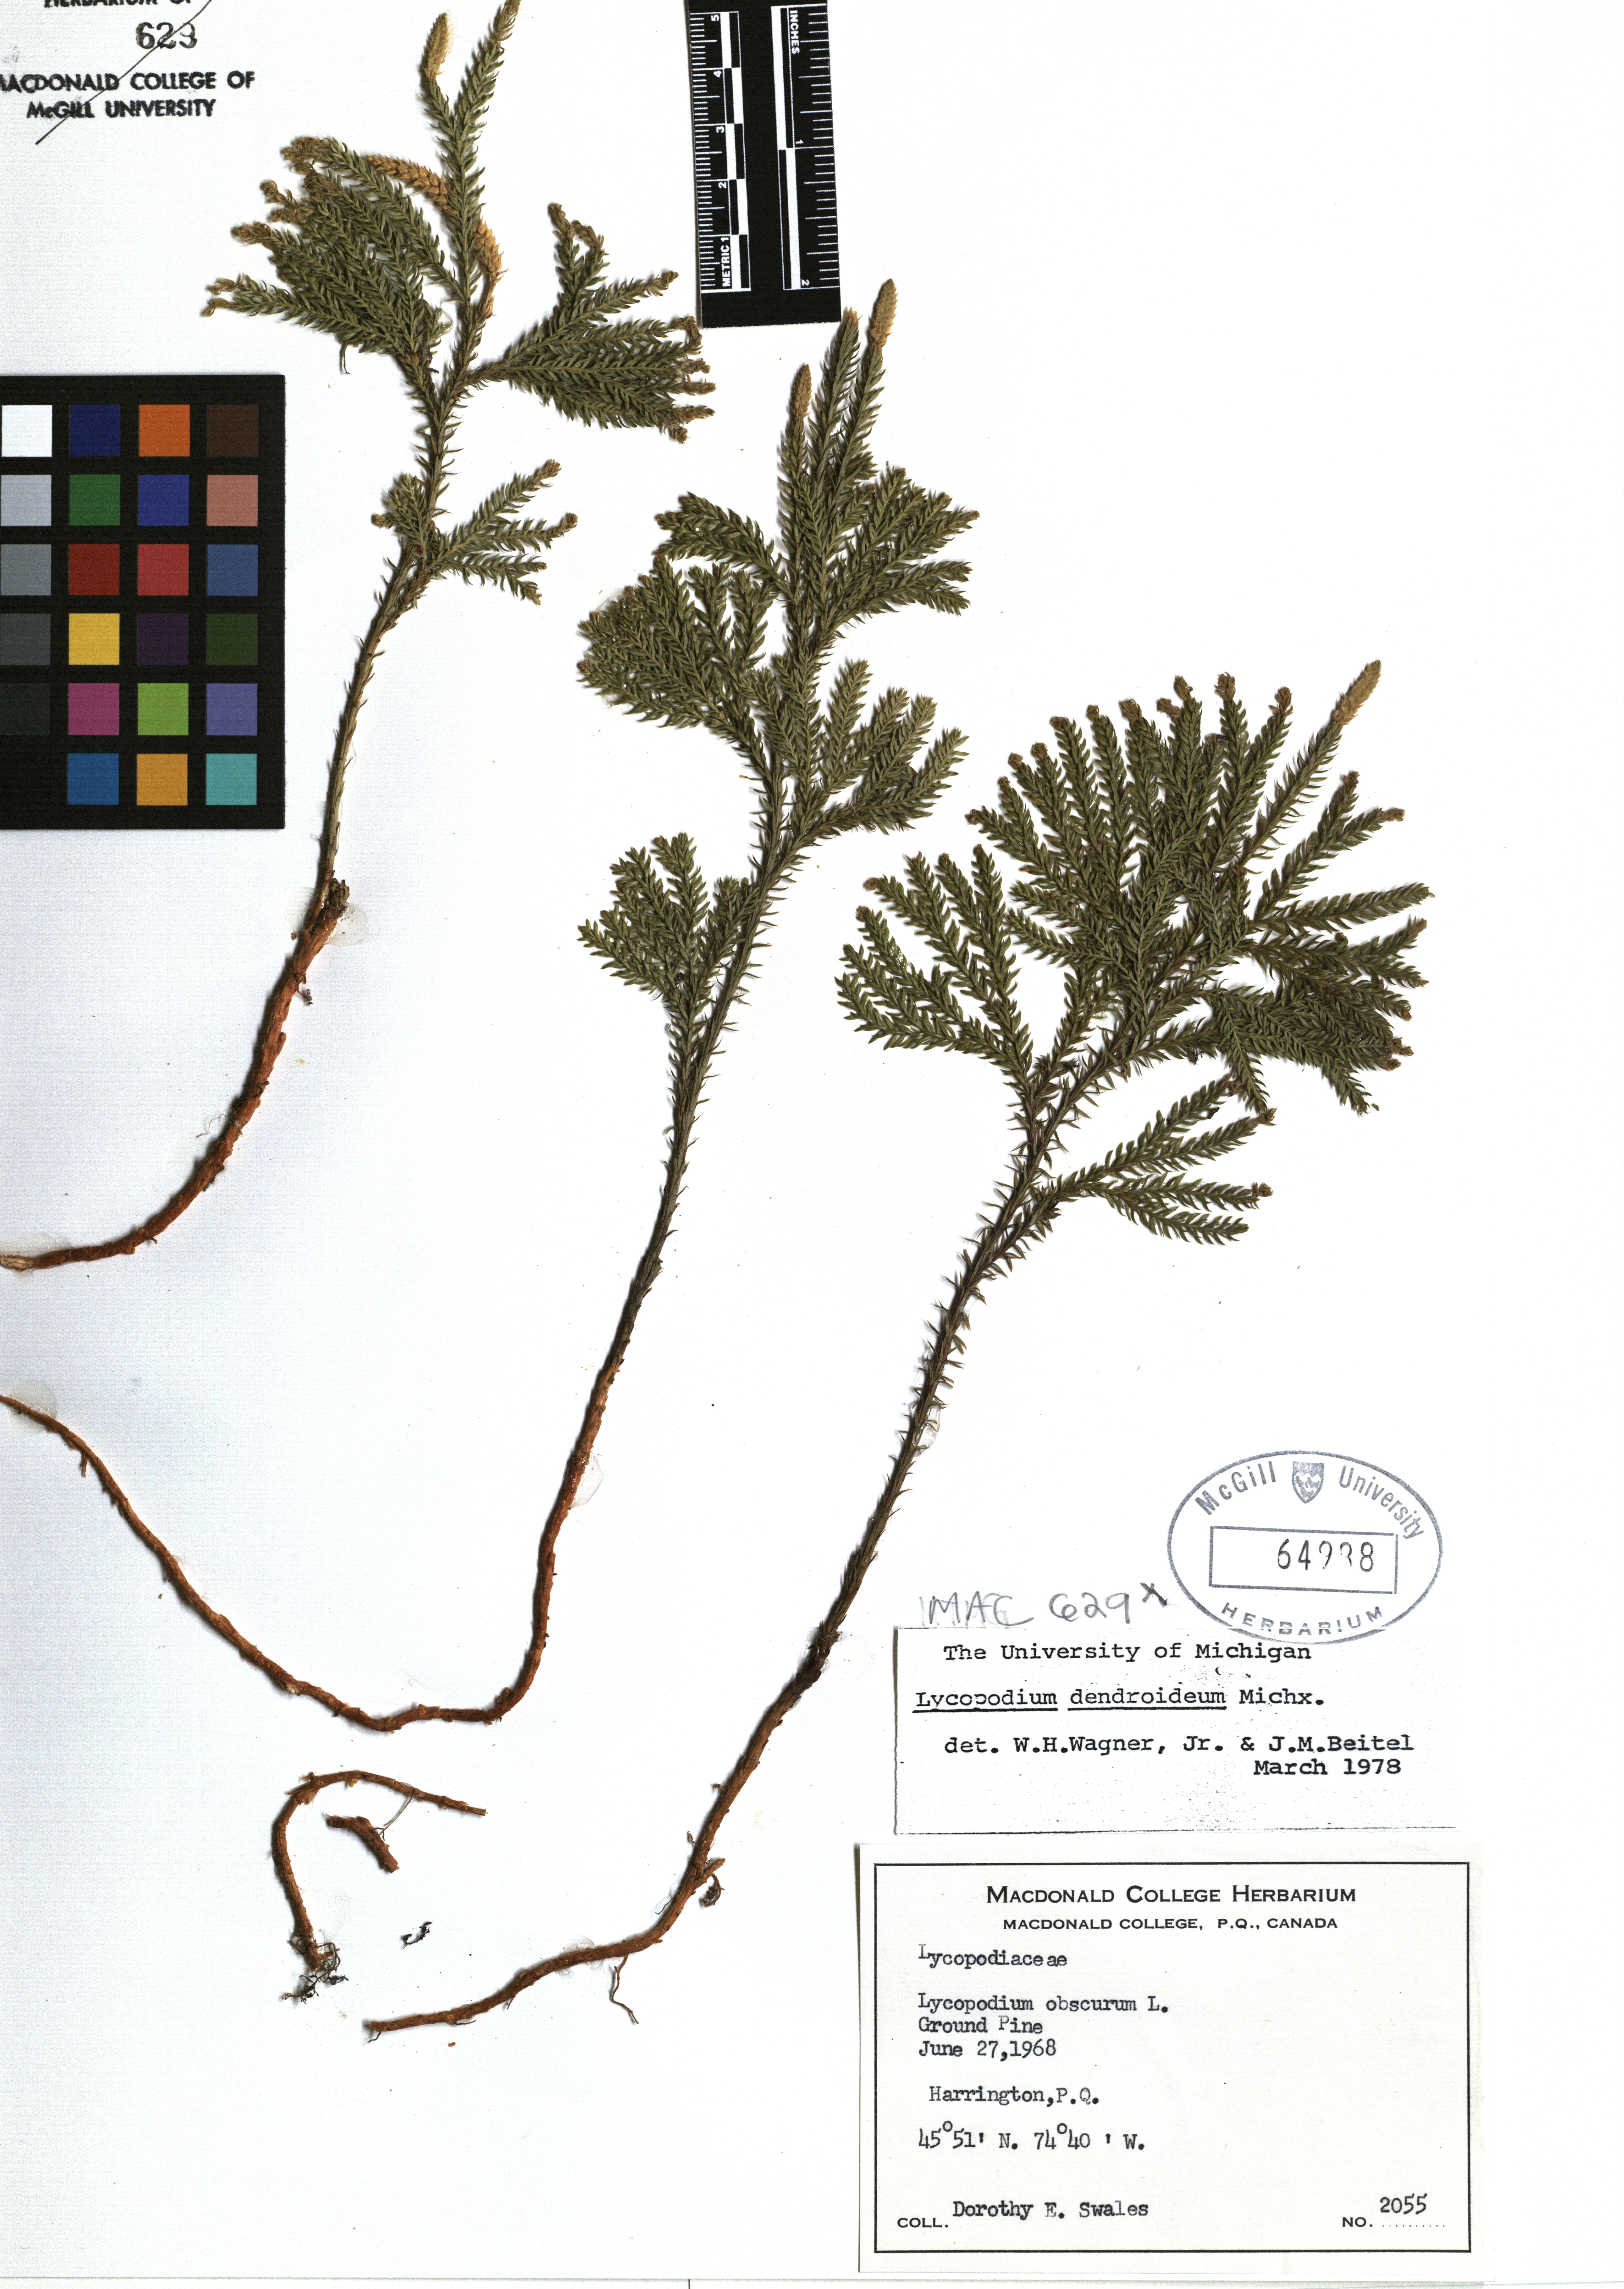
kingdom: Plantae
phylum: Tracheophyta
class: Lycopodiopsida
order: Lycopodiales
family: Lycopodiaceae
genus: Dendrolycopodium
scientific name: Dendrolycopodium dendroideum
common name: Northern tree-clubmoss
